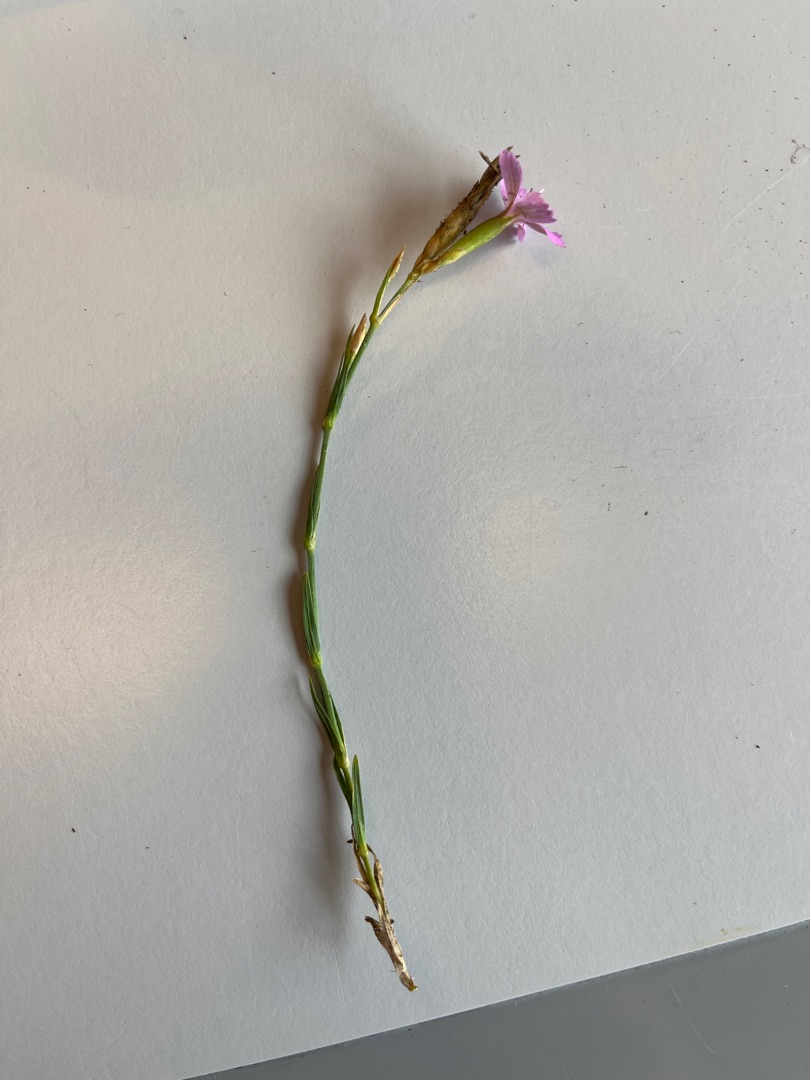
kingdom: Plantae
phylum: Tracheophyta
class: Magnoliopsida
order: Caryophyllales
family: Caryophyllaceae
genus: Dianthus
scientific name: Dianthus deltoides
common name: Bakke-nellike
